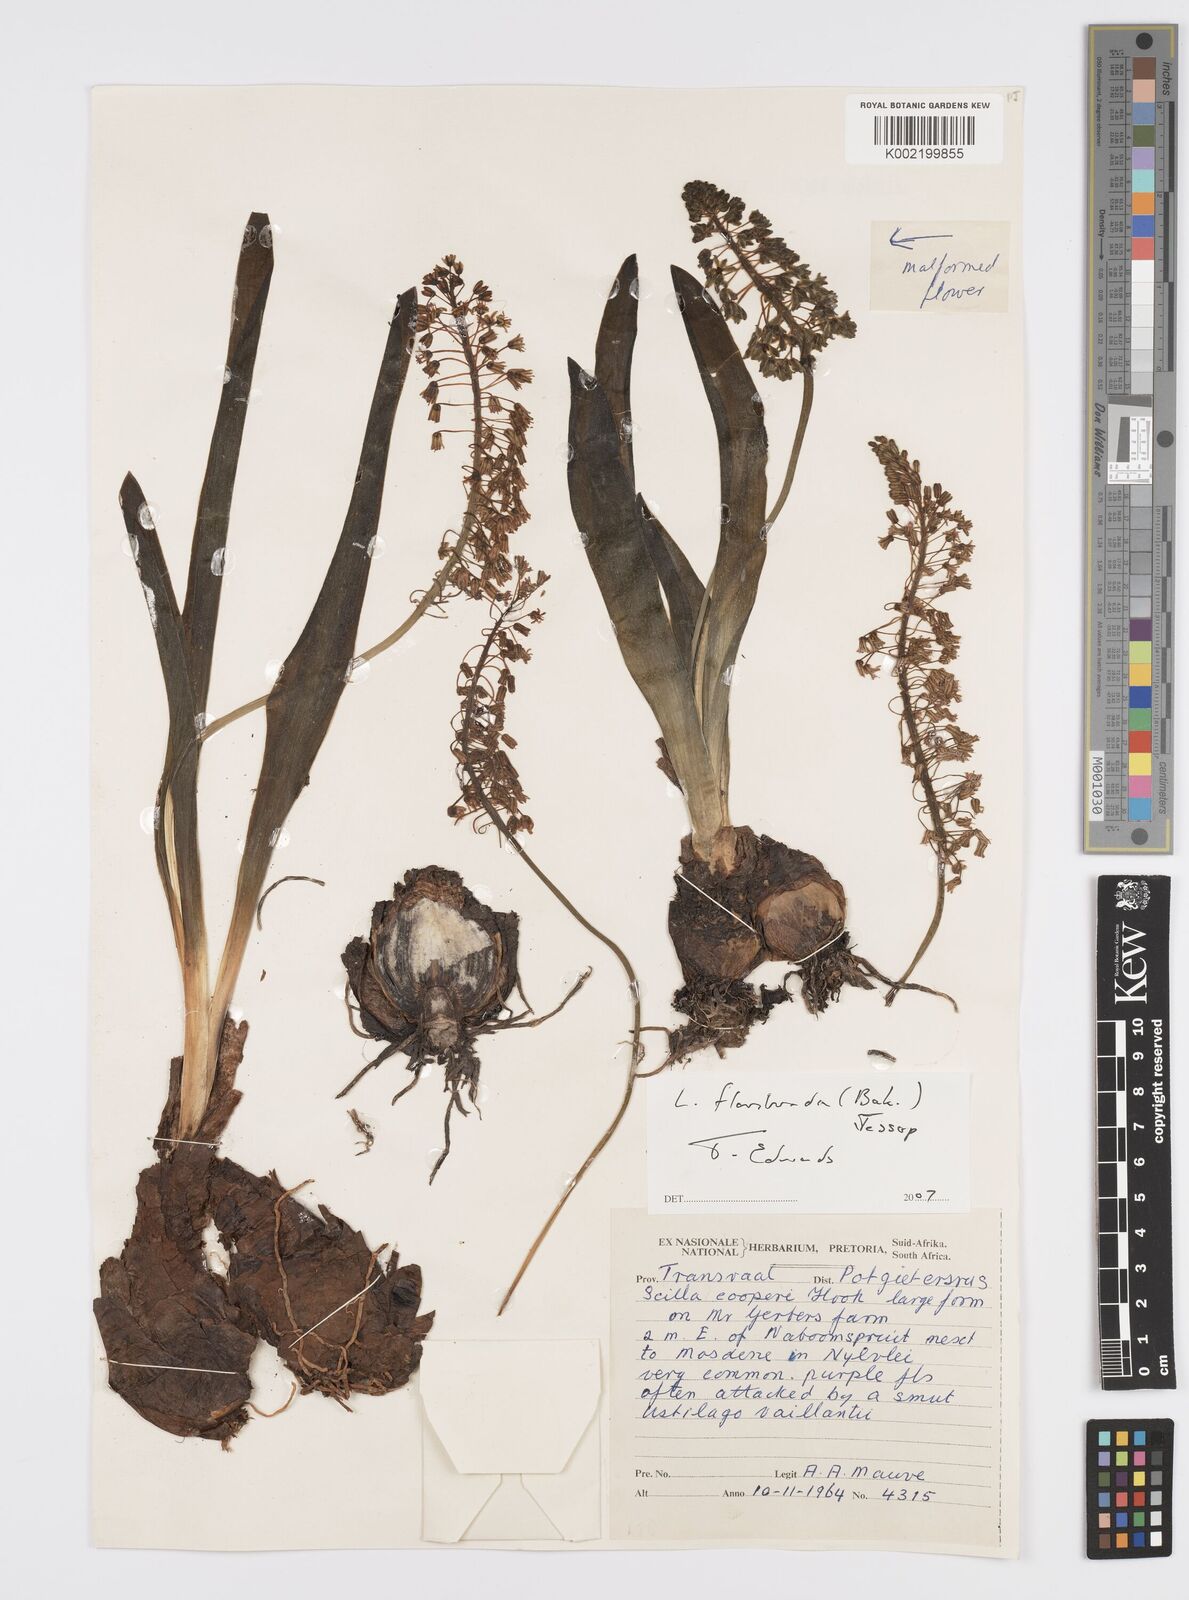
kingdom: Plantae
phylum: Tracheophyta
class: Liliopsida
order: Asparagales
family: Asparagaceae
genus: Ledebouria
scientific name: Ledebouria floribunda
